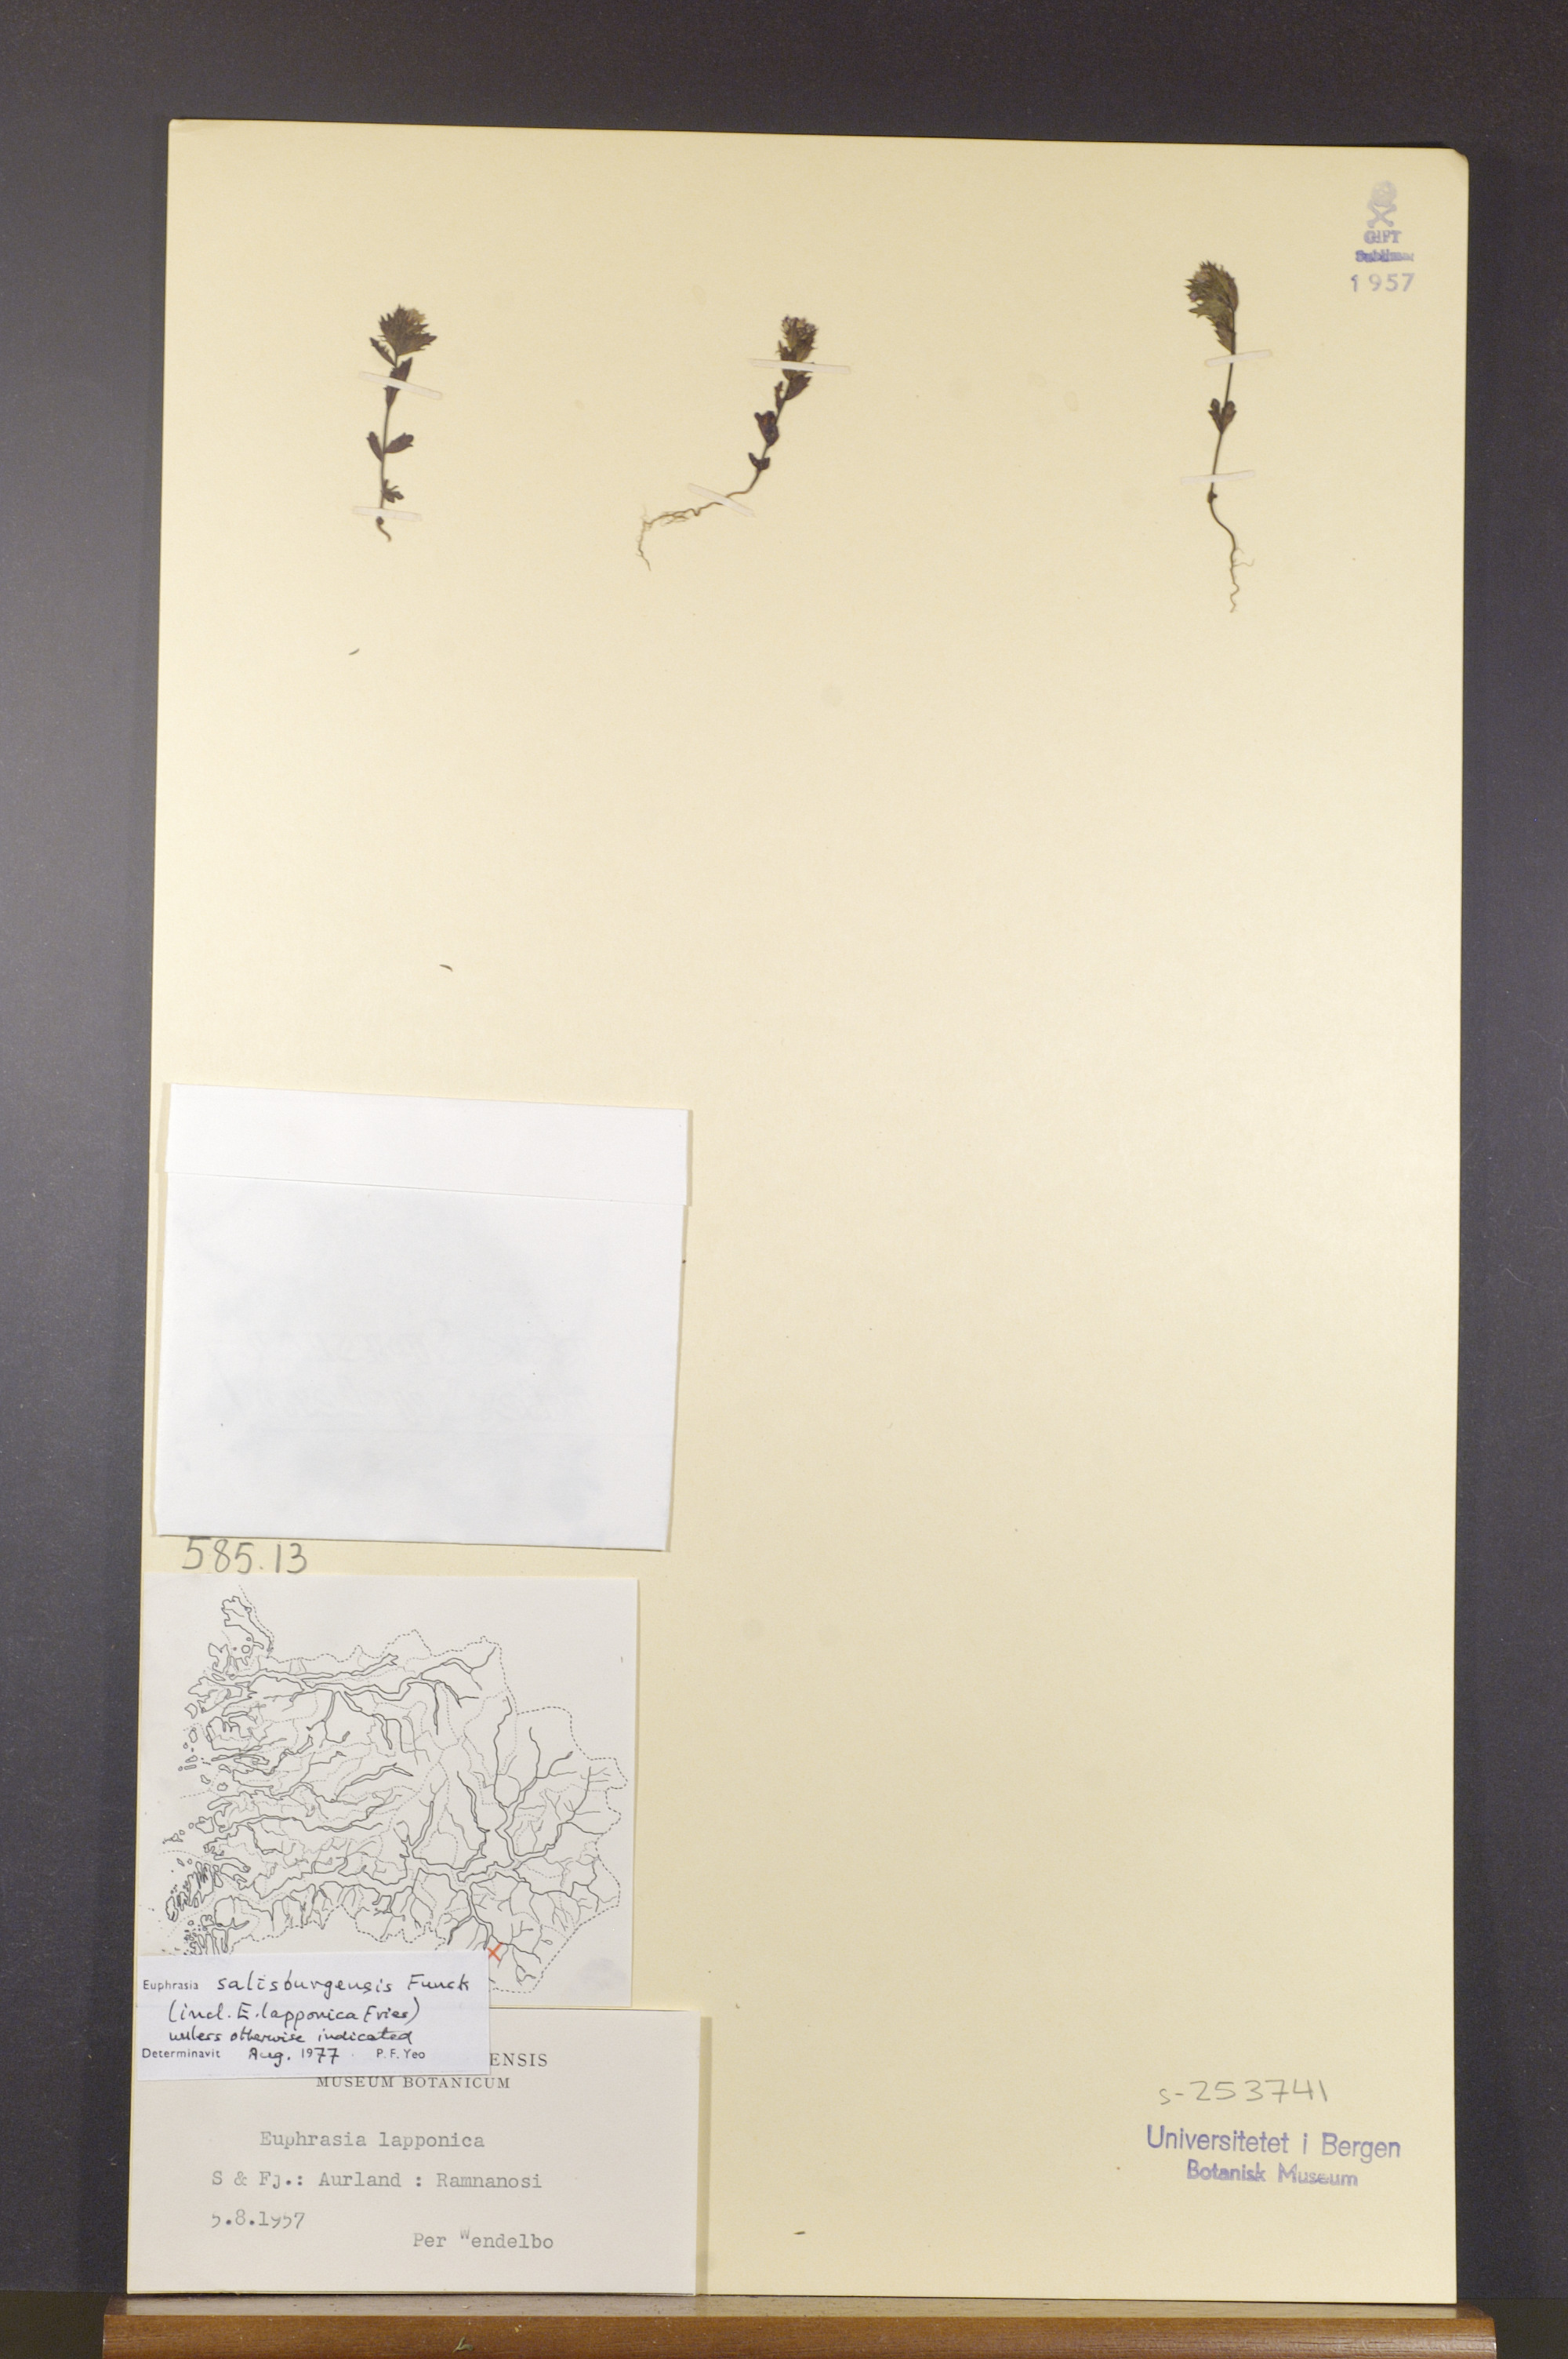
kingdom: Plantae
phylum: Tracheophyta
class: Magnoliopsida
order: Lamiales
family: Orobanchaceae
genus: Euphrasia
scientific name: Euphrasia salisburgensis
